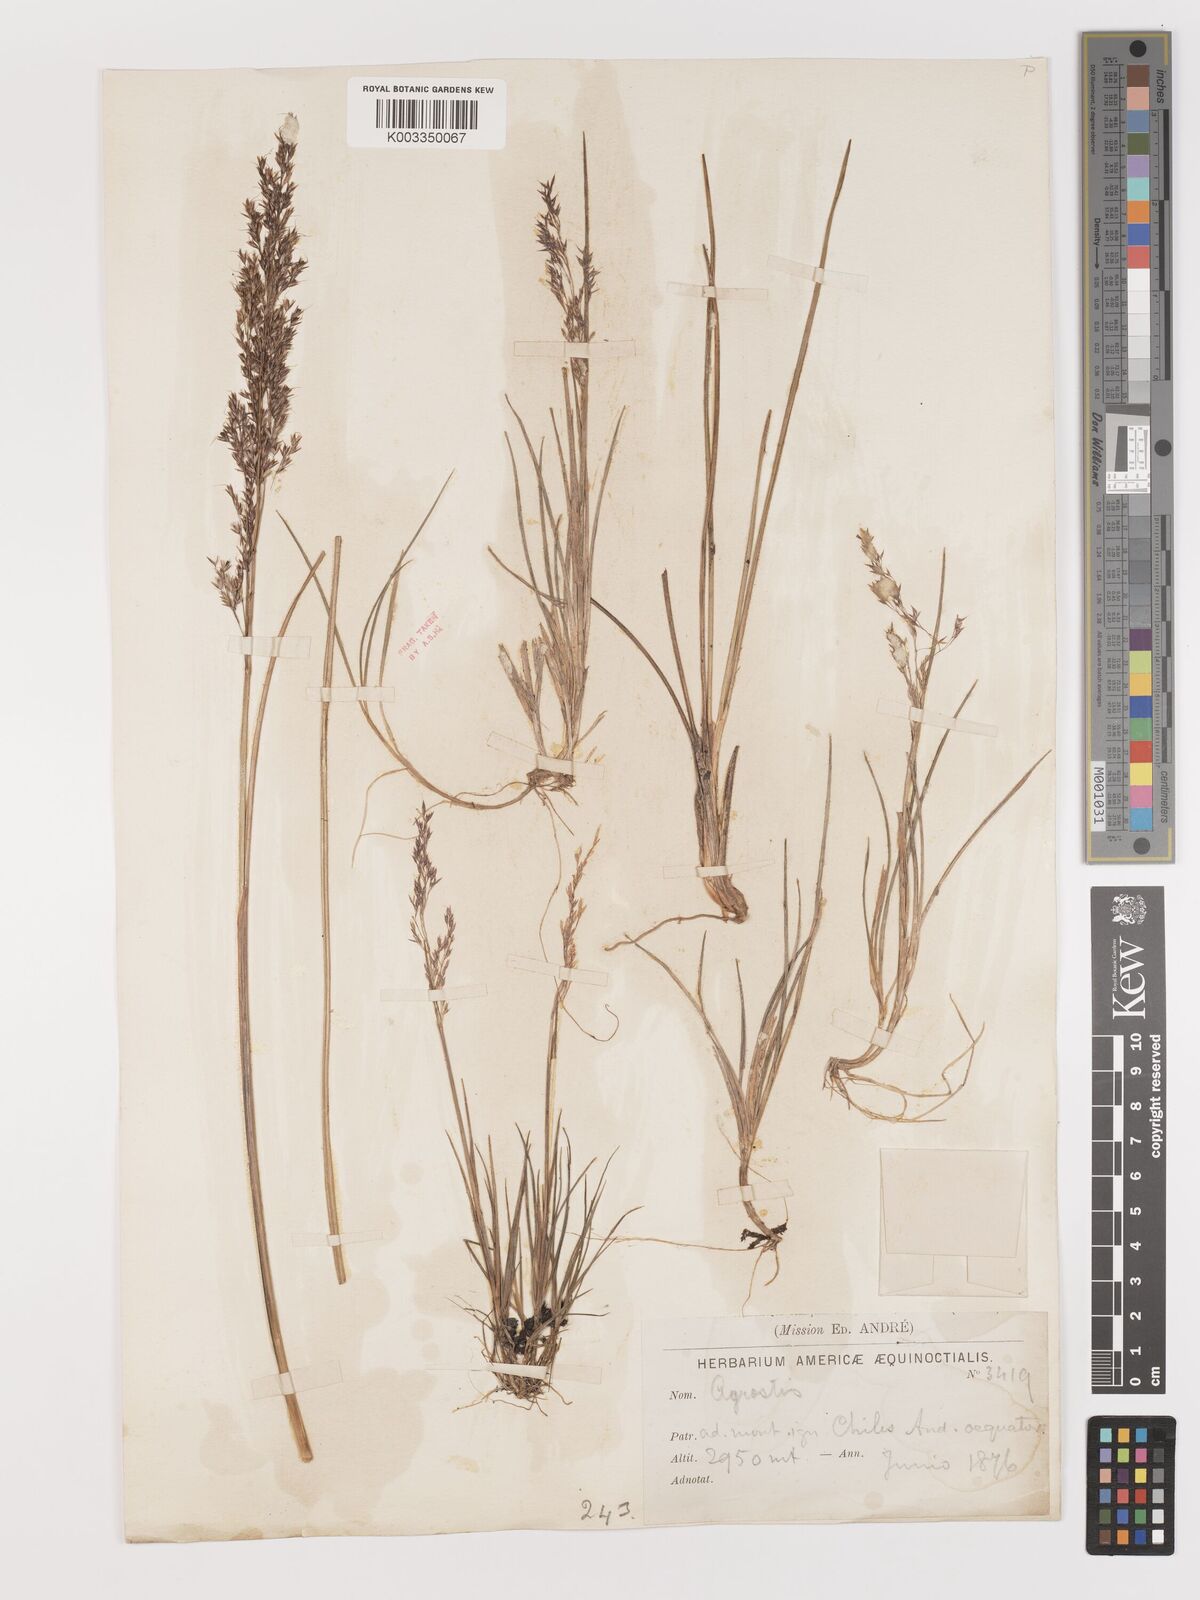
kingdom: Plantae
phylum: Tracheophyta
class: Liliopsida
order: Poales
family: Poaceae
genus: Agrostis
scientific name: Agrostis
